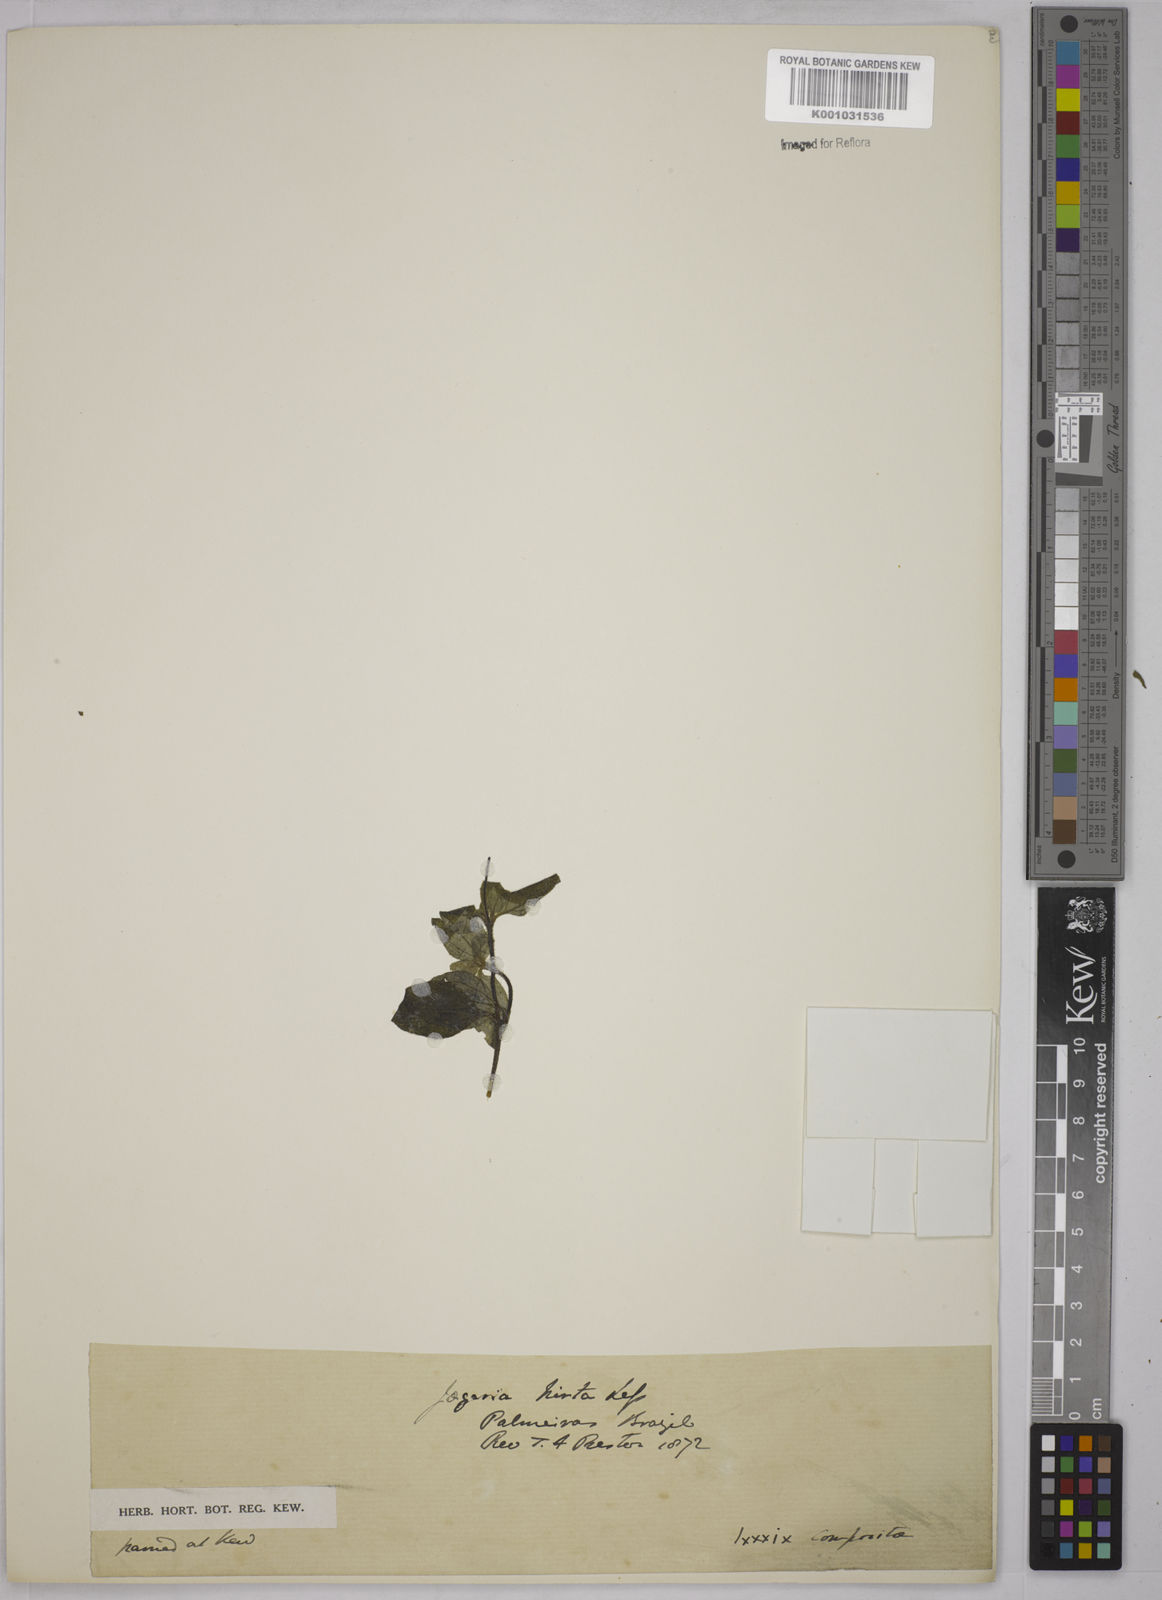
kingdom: Plantae
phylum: Tracheophyta
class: Magnoliopsida
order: Asterales
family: Asteraceae
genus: Jaegeria
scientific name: Jaegeria hirta
